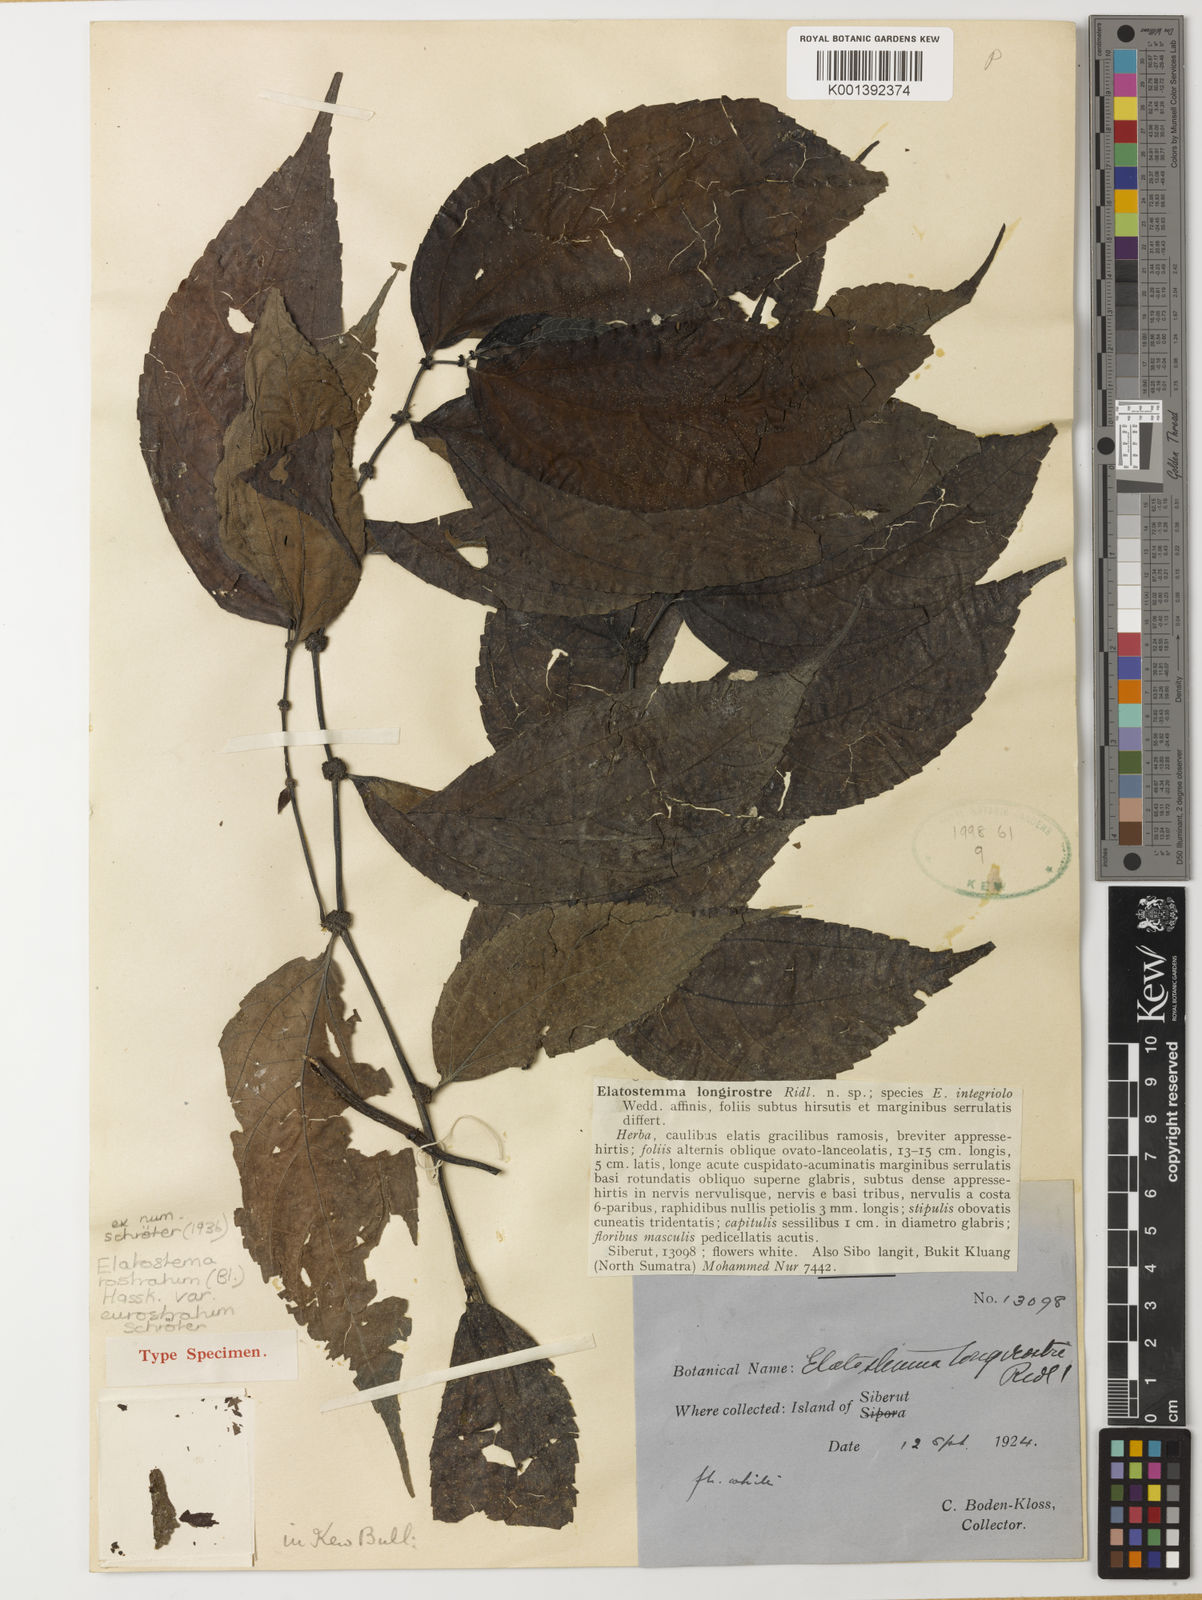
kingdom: Plantae
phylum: Tracheophyta
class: Magnoliopsida
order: Rosales
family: Urticaceae
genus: Elatostema
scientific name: Elatostema rostratum
